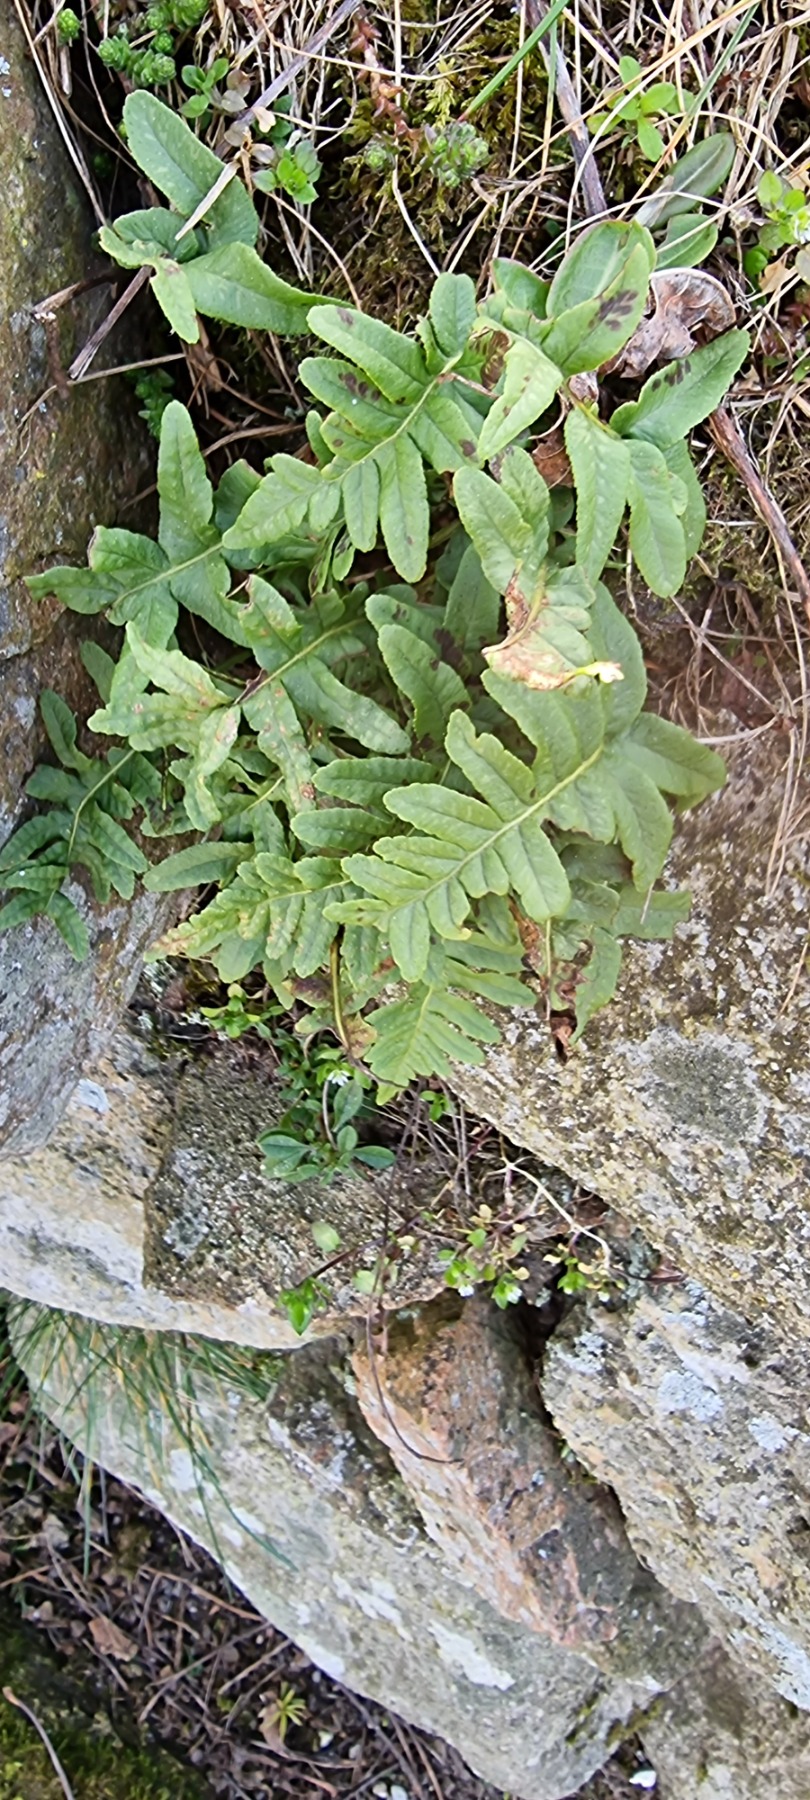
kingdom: Plantae
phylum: Tracheophyta
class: Polypodiopsida
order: Polypodiales
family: Polypodiaceae
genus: Polypodium
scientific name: Polypodium vulgare
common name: Almindelig engelsød
